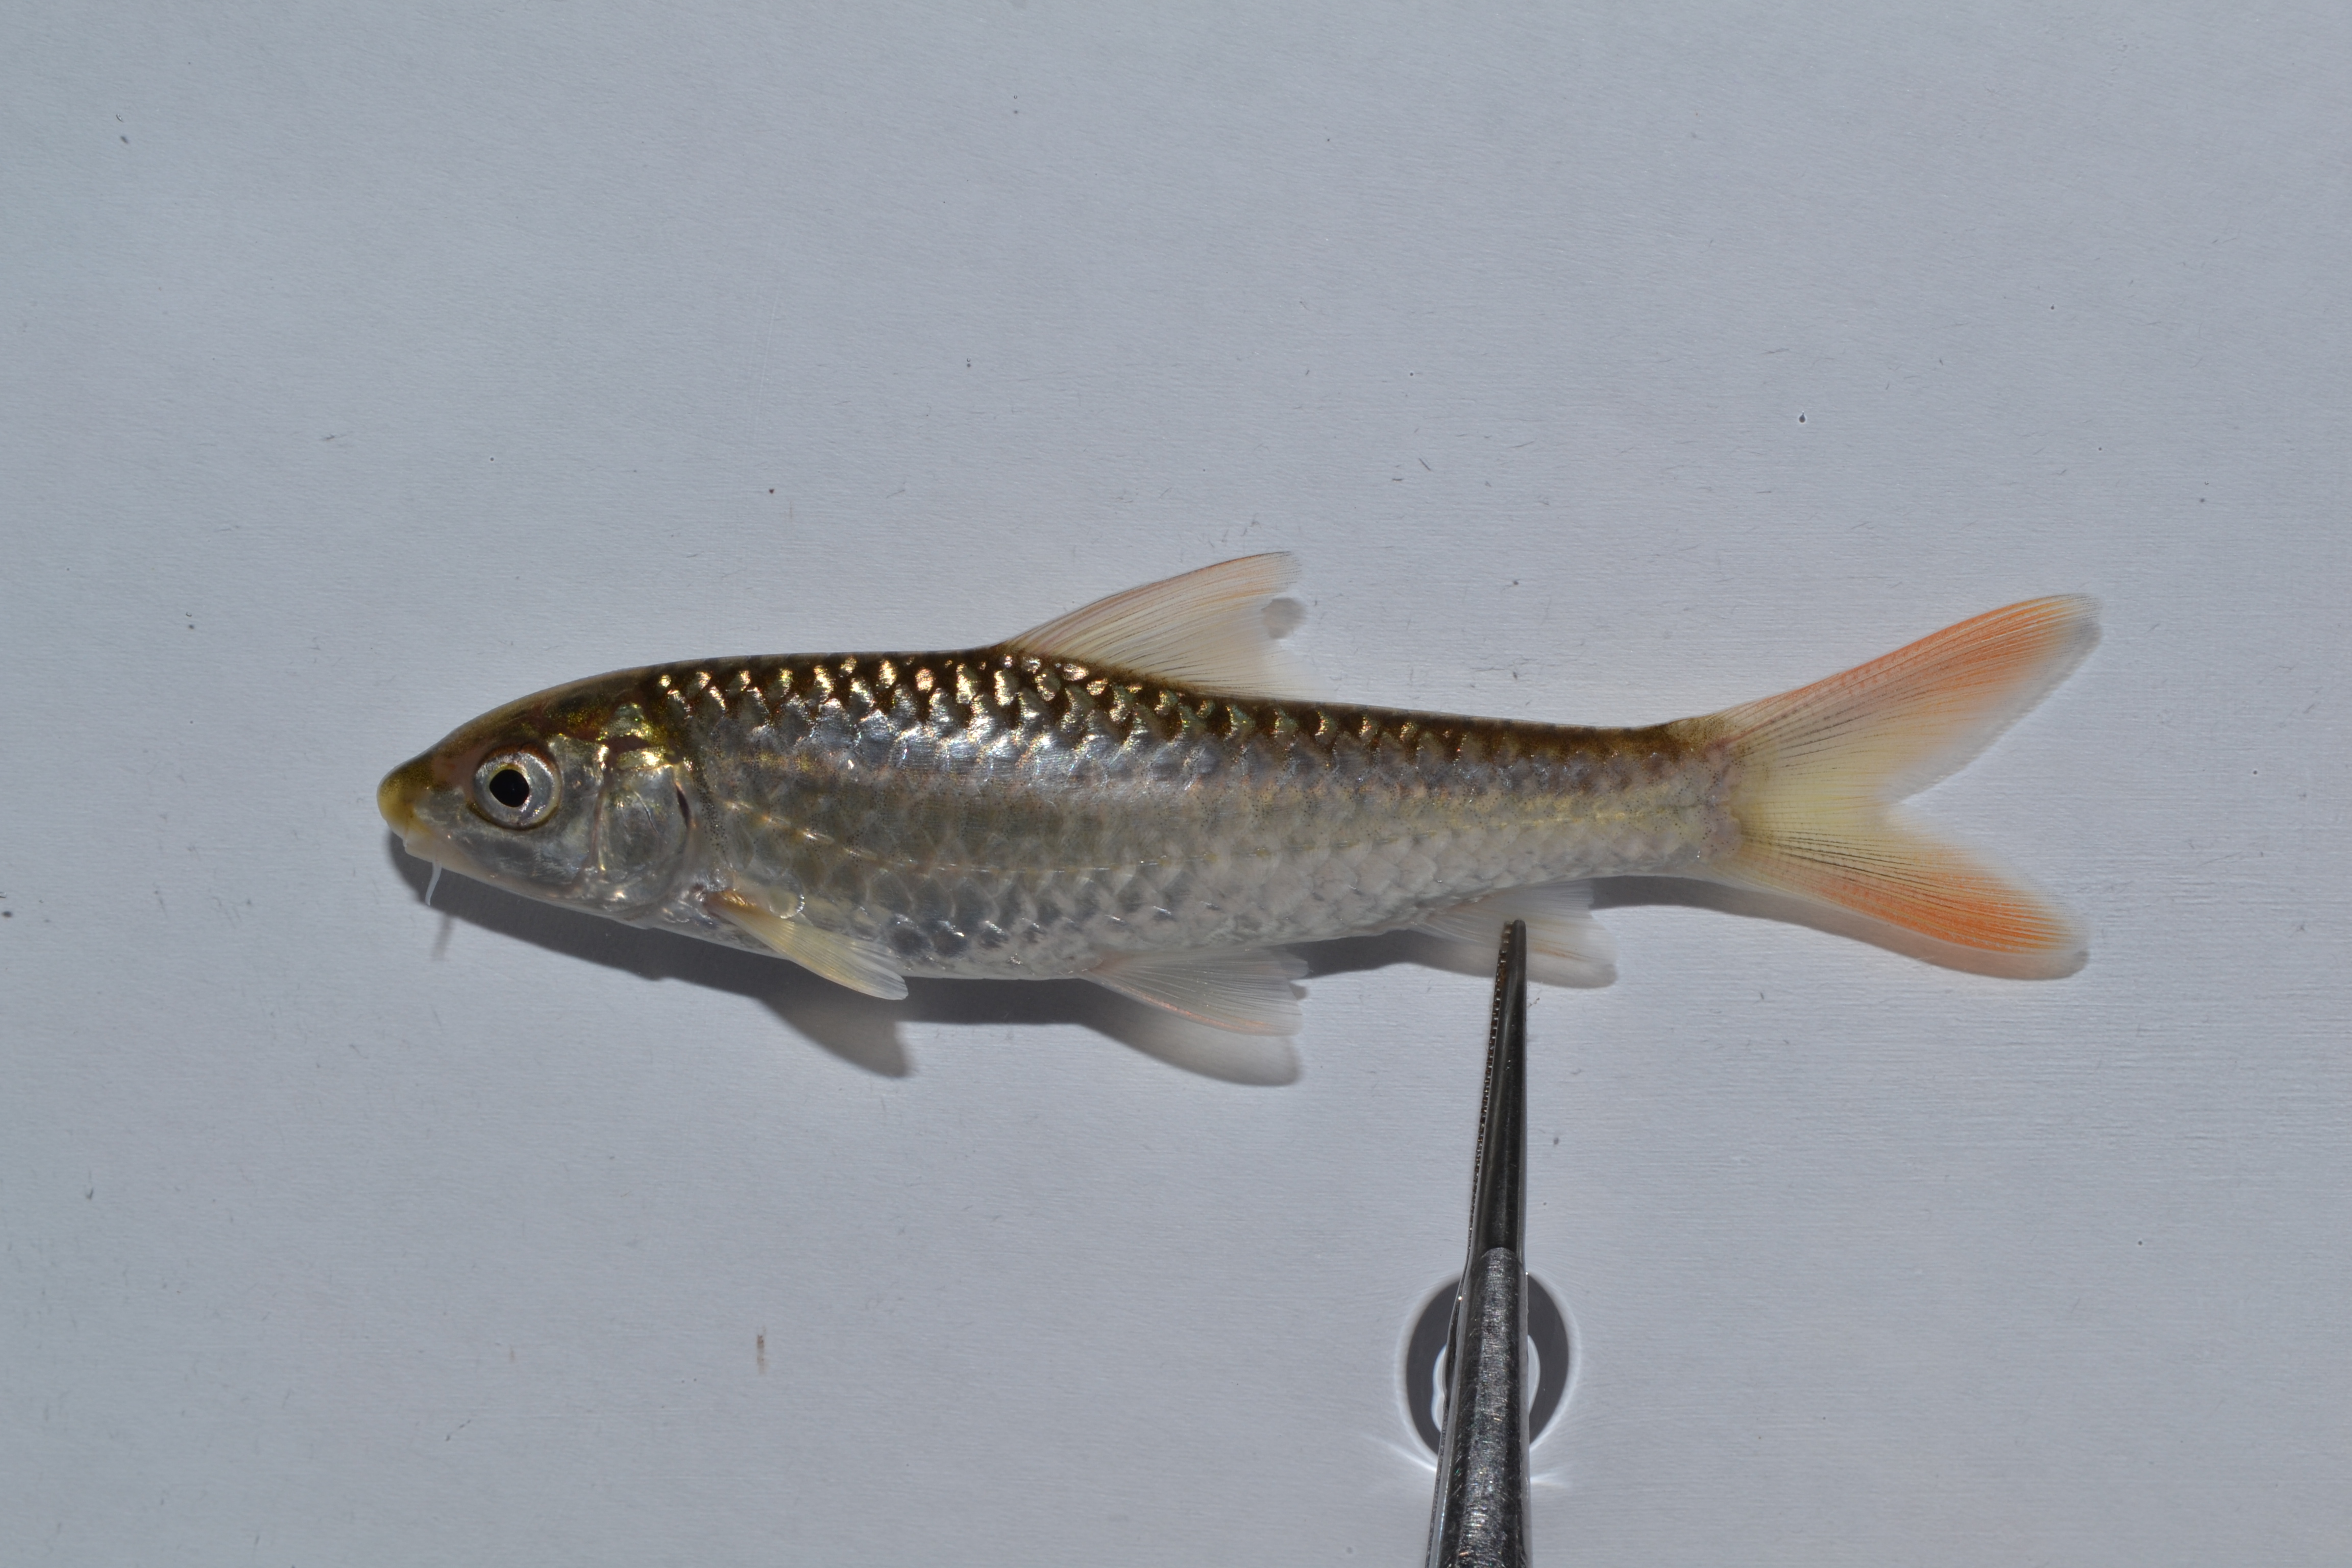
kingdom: Animalia
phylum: Chordata
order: Cypriniformes
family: Cyprinidae
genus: Labeobarbus
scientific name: Labeobarbus marequensis
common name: Largescale yellowfish
